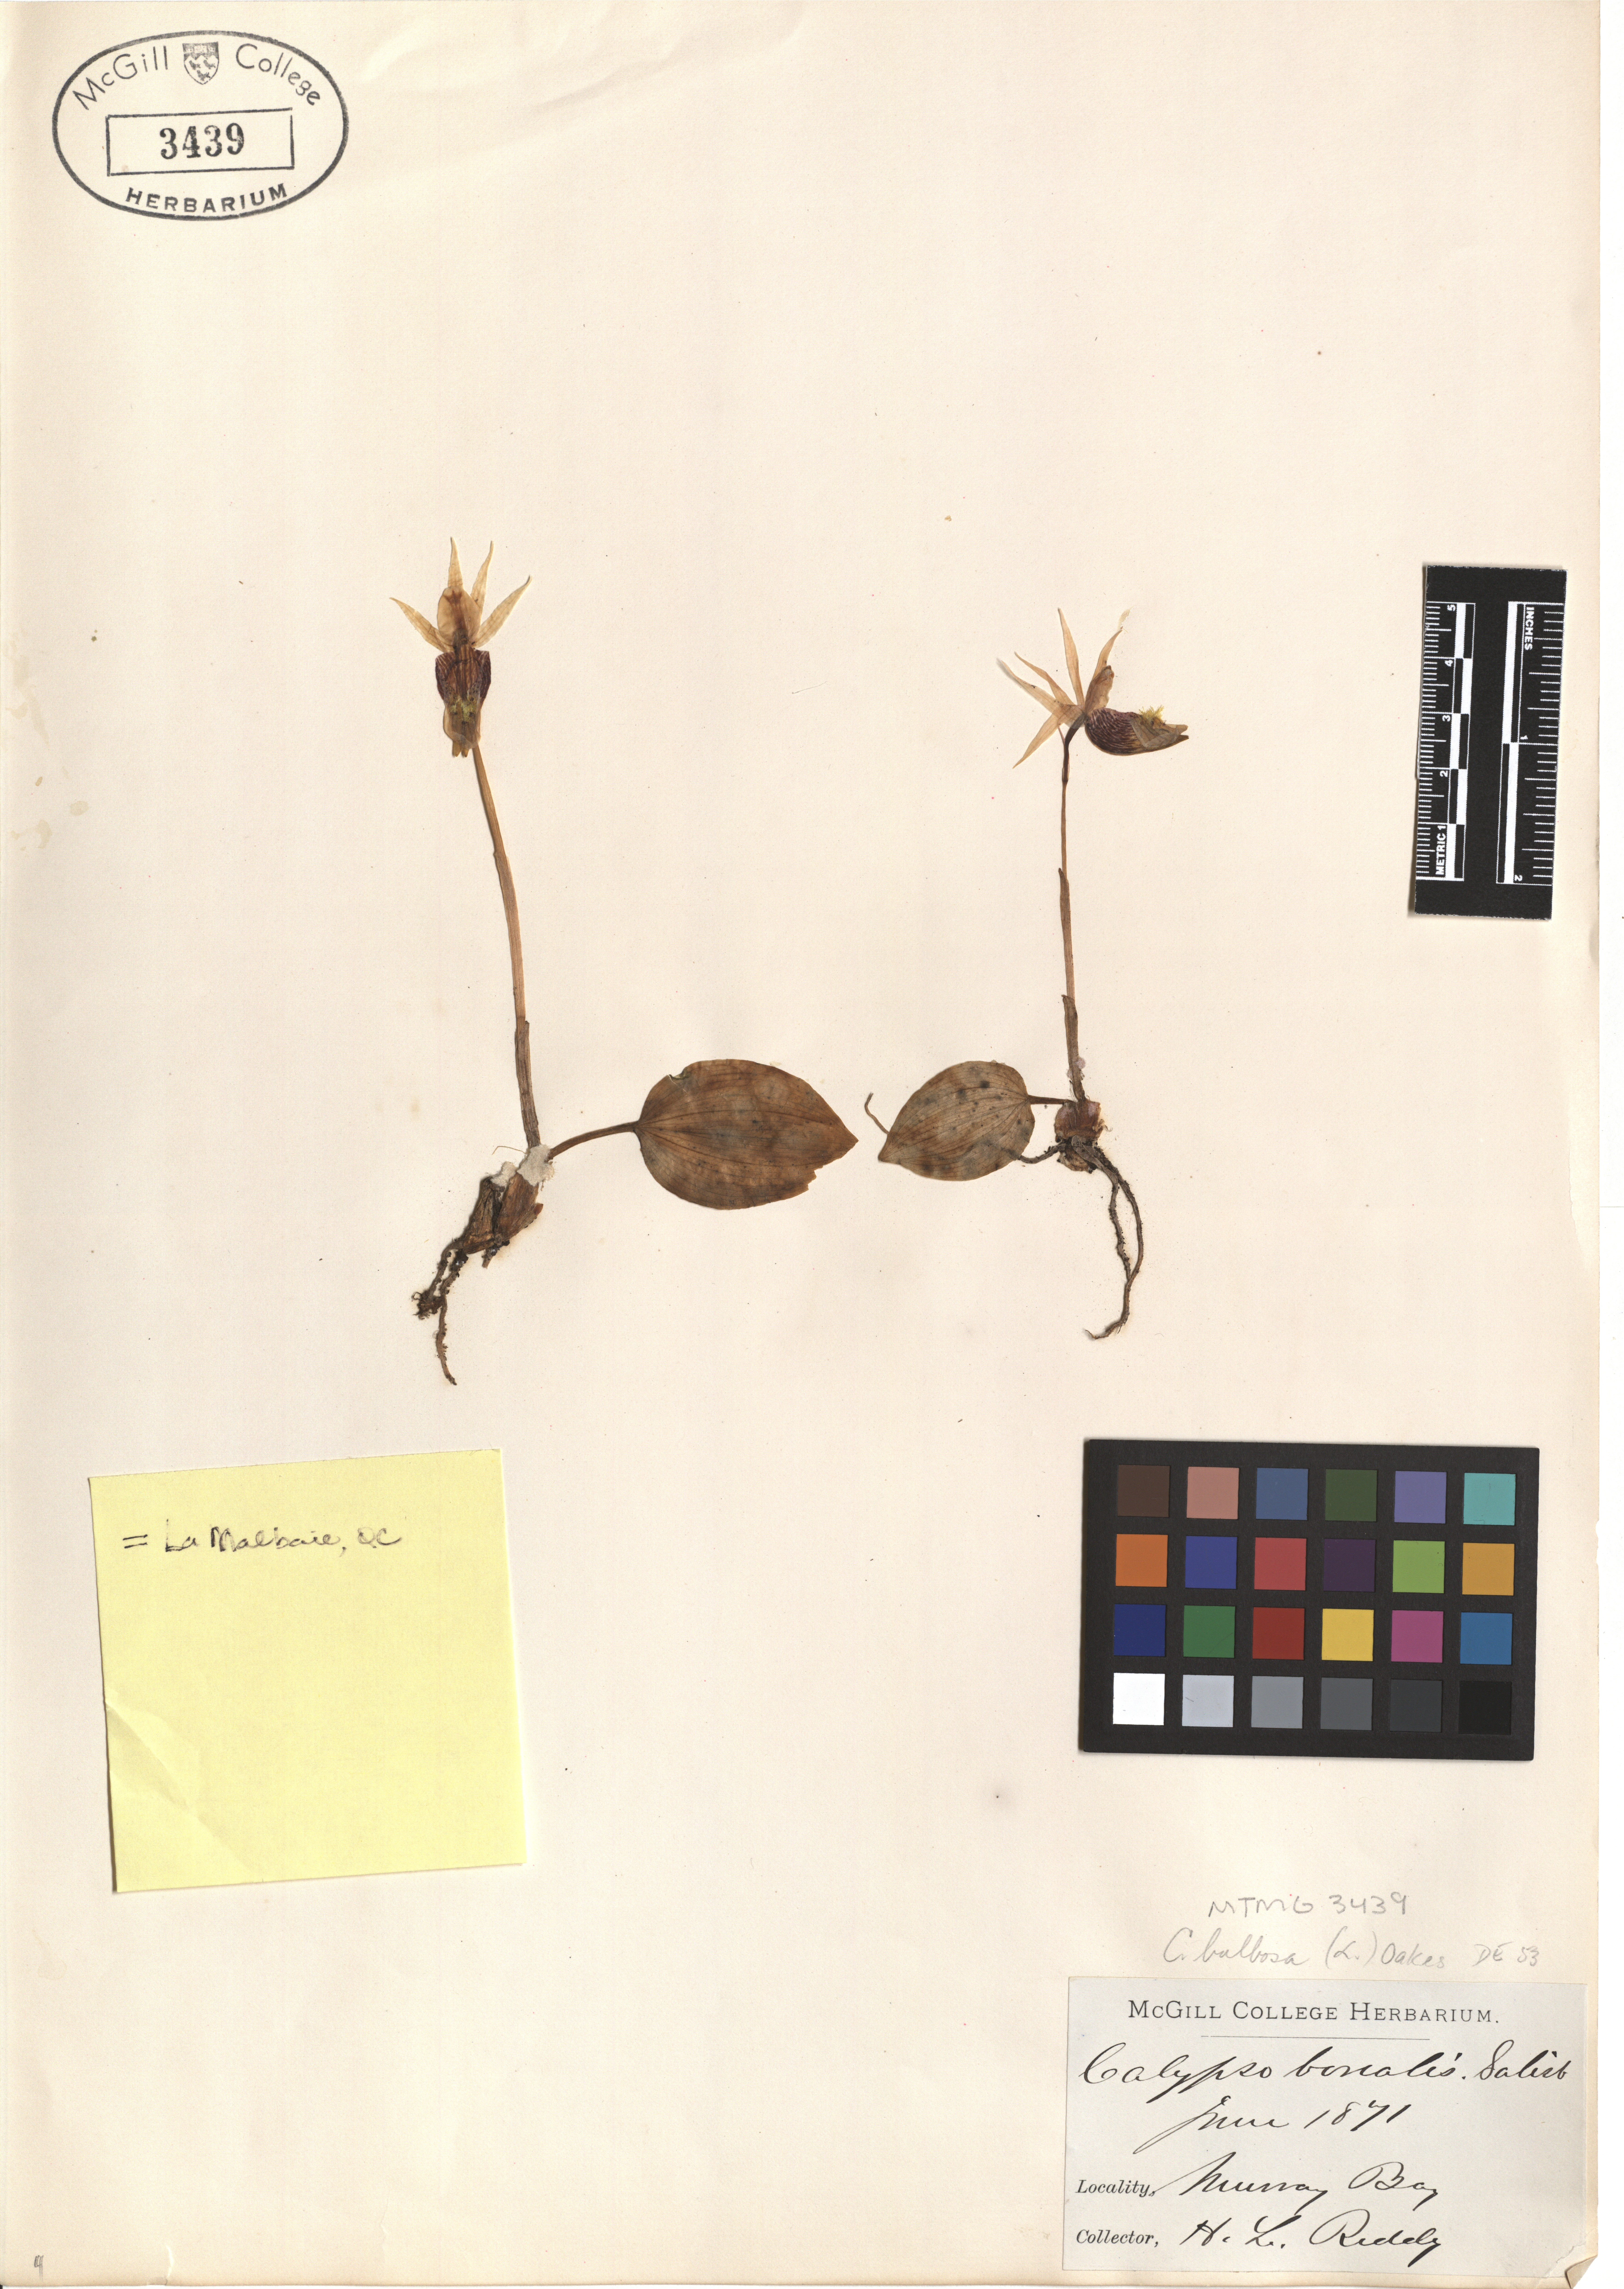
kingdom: Plantae
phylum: Tracheophyta
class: Liliopsida
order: Asparagales
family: Orchidaceae
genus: Calypso
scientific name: Calypso bulbosa
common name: Calypso
